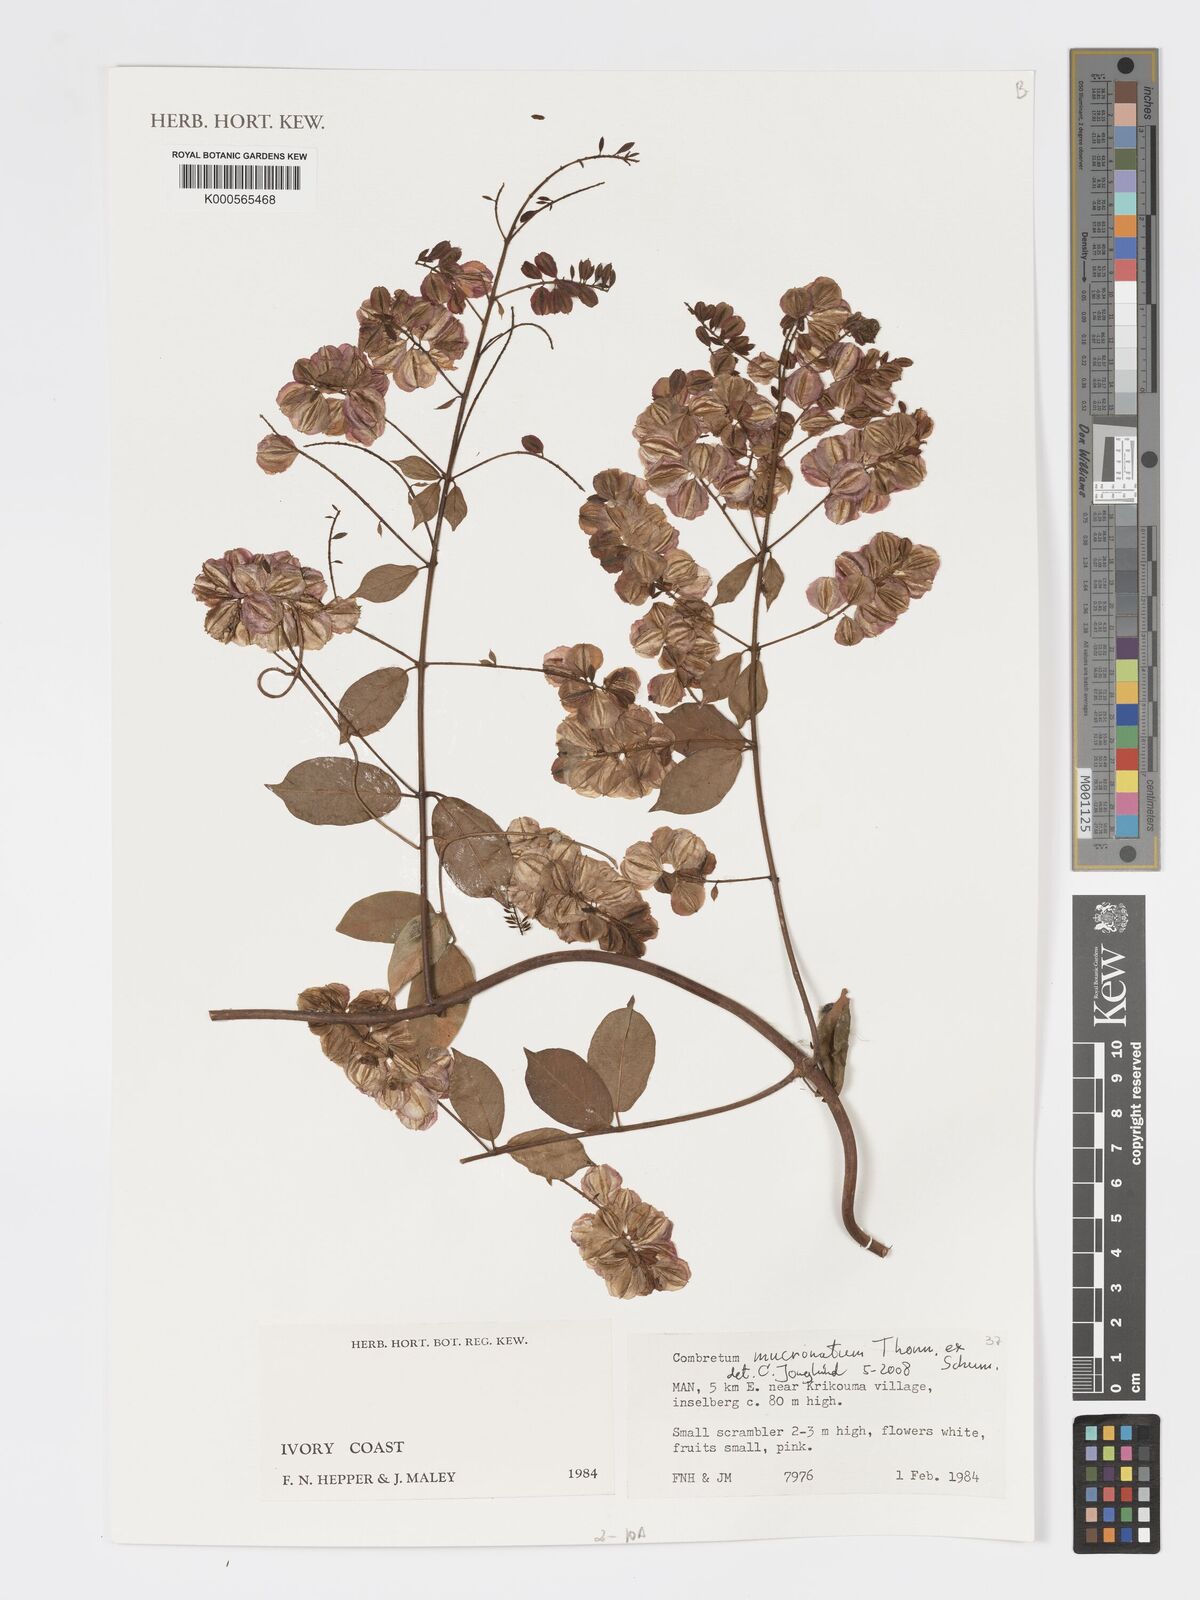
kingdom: Plantae
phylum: Tracheophyta
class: Magnoliopsida
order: Myrtales
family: Combretaceae
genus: Combretum
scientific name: Combretum mucronatum
